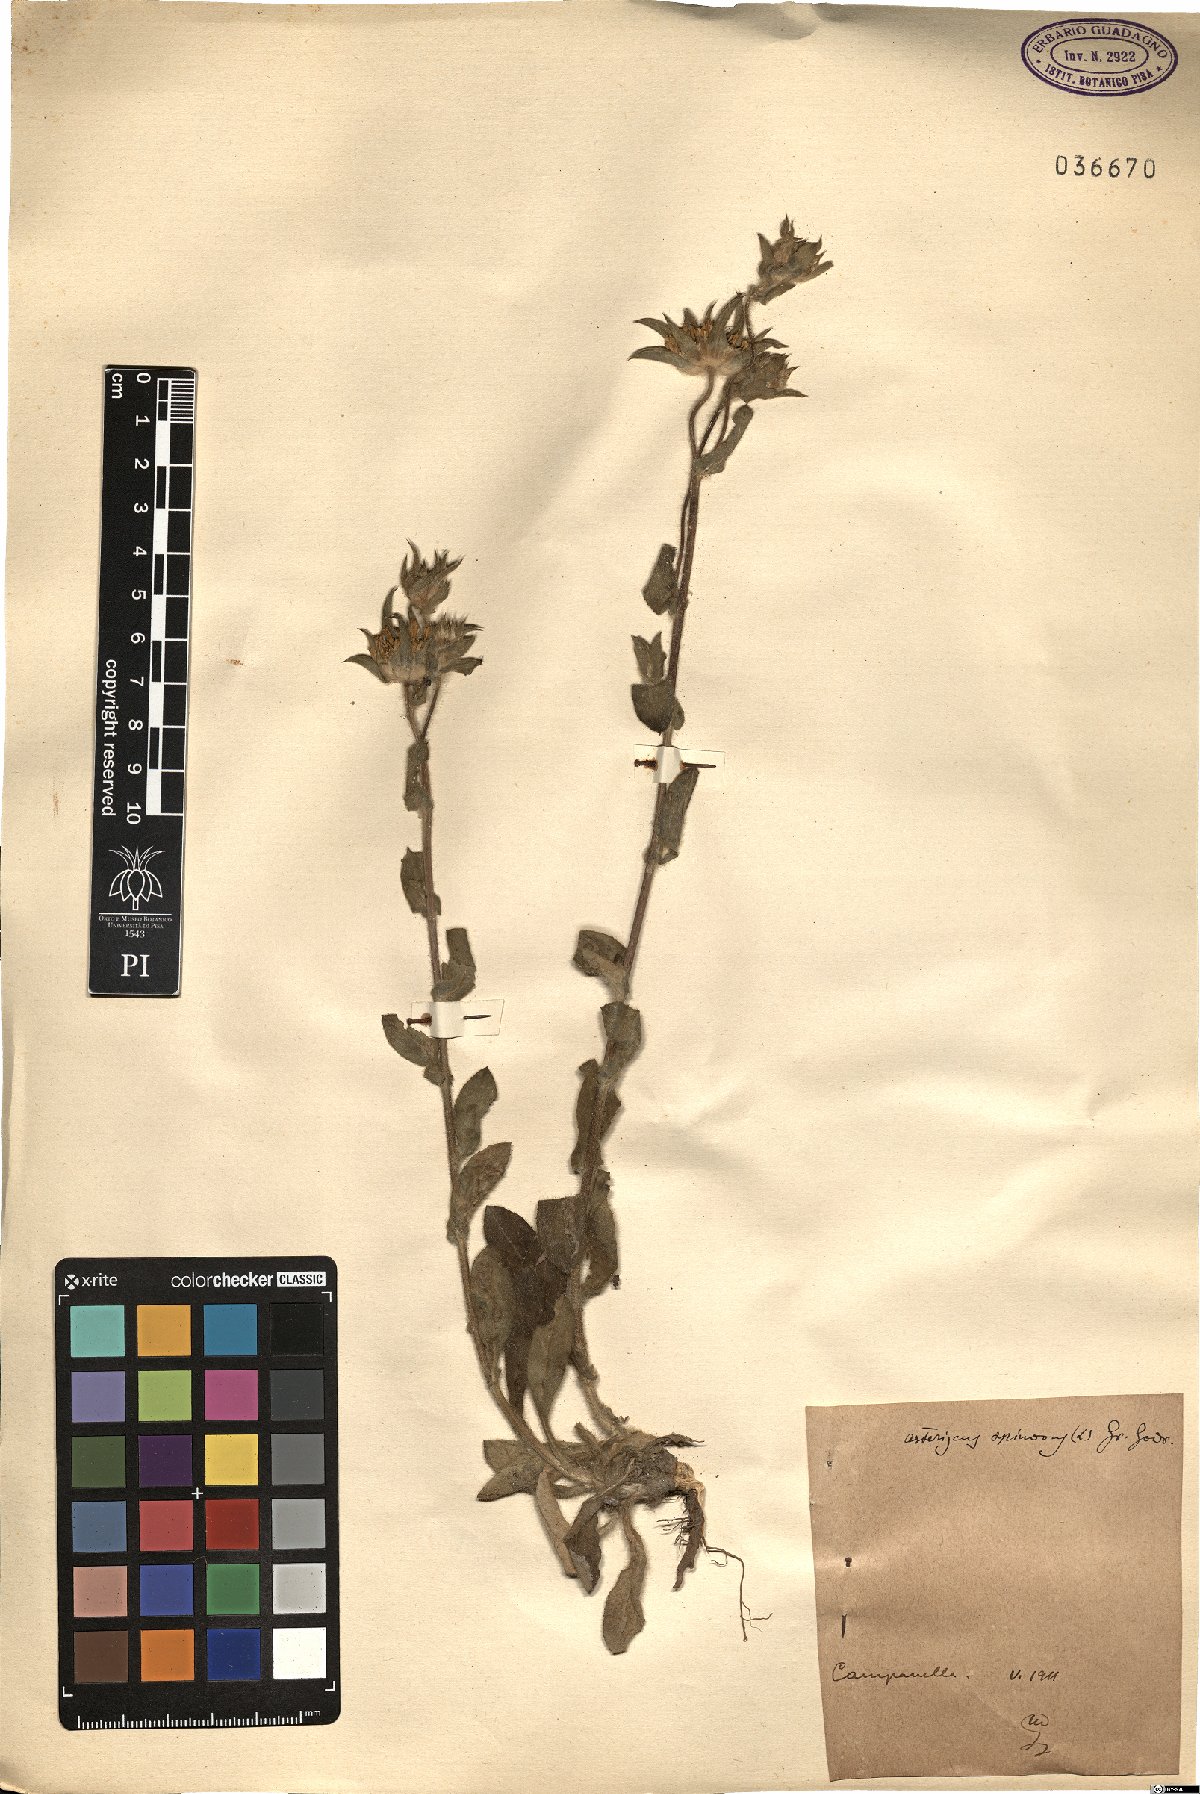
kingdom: Plantae
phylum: Tracheophyta
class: Magnoliopsida
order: Asterales
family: Asteraceae
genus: Pallenis
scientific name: Pallenis spinosa
